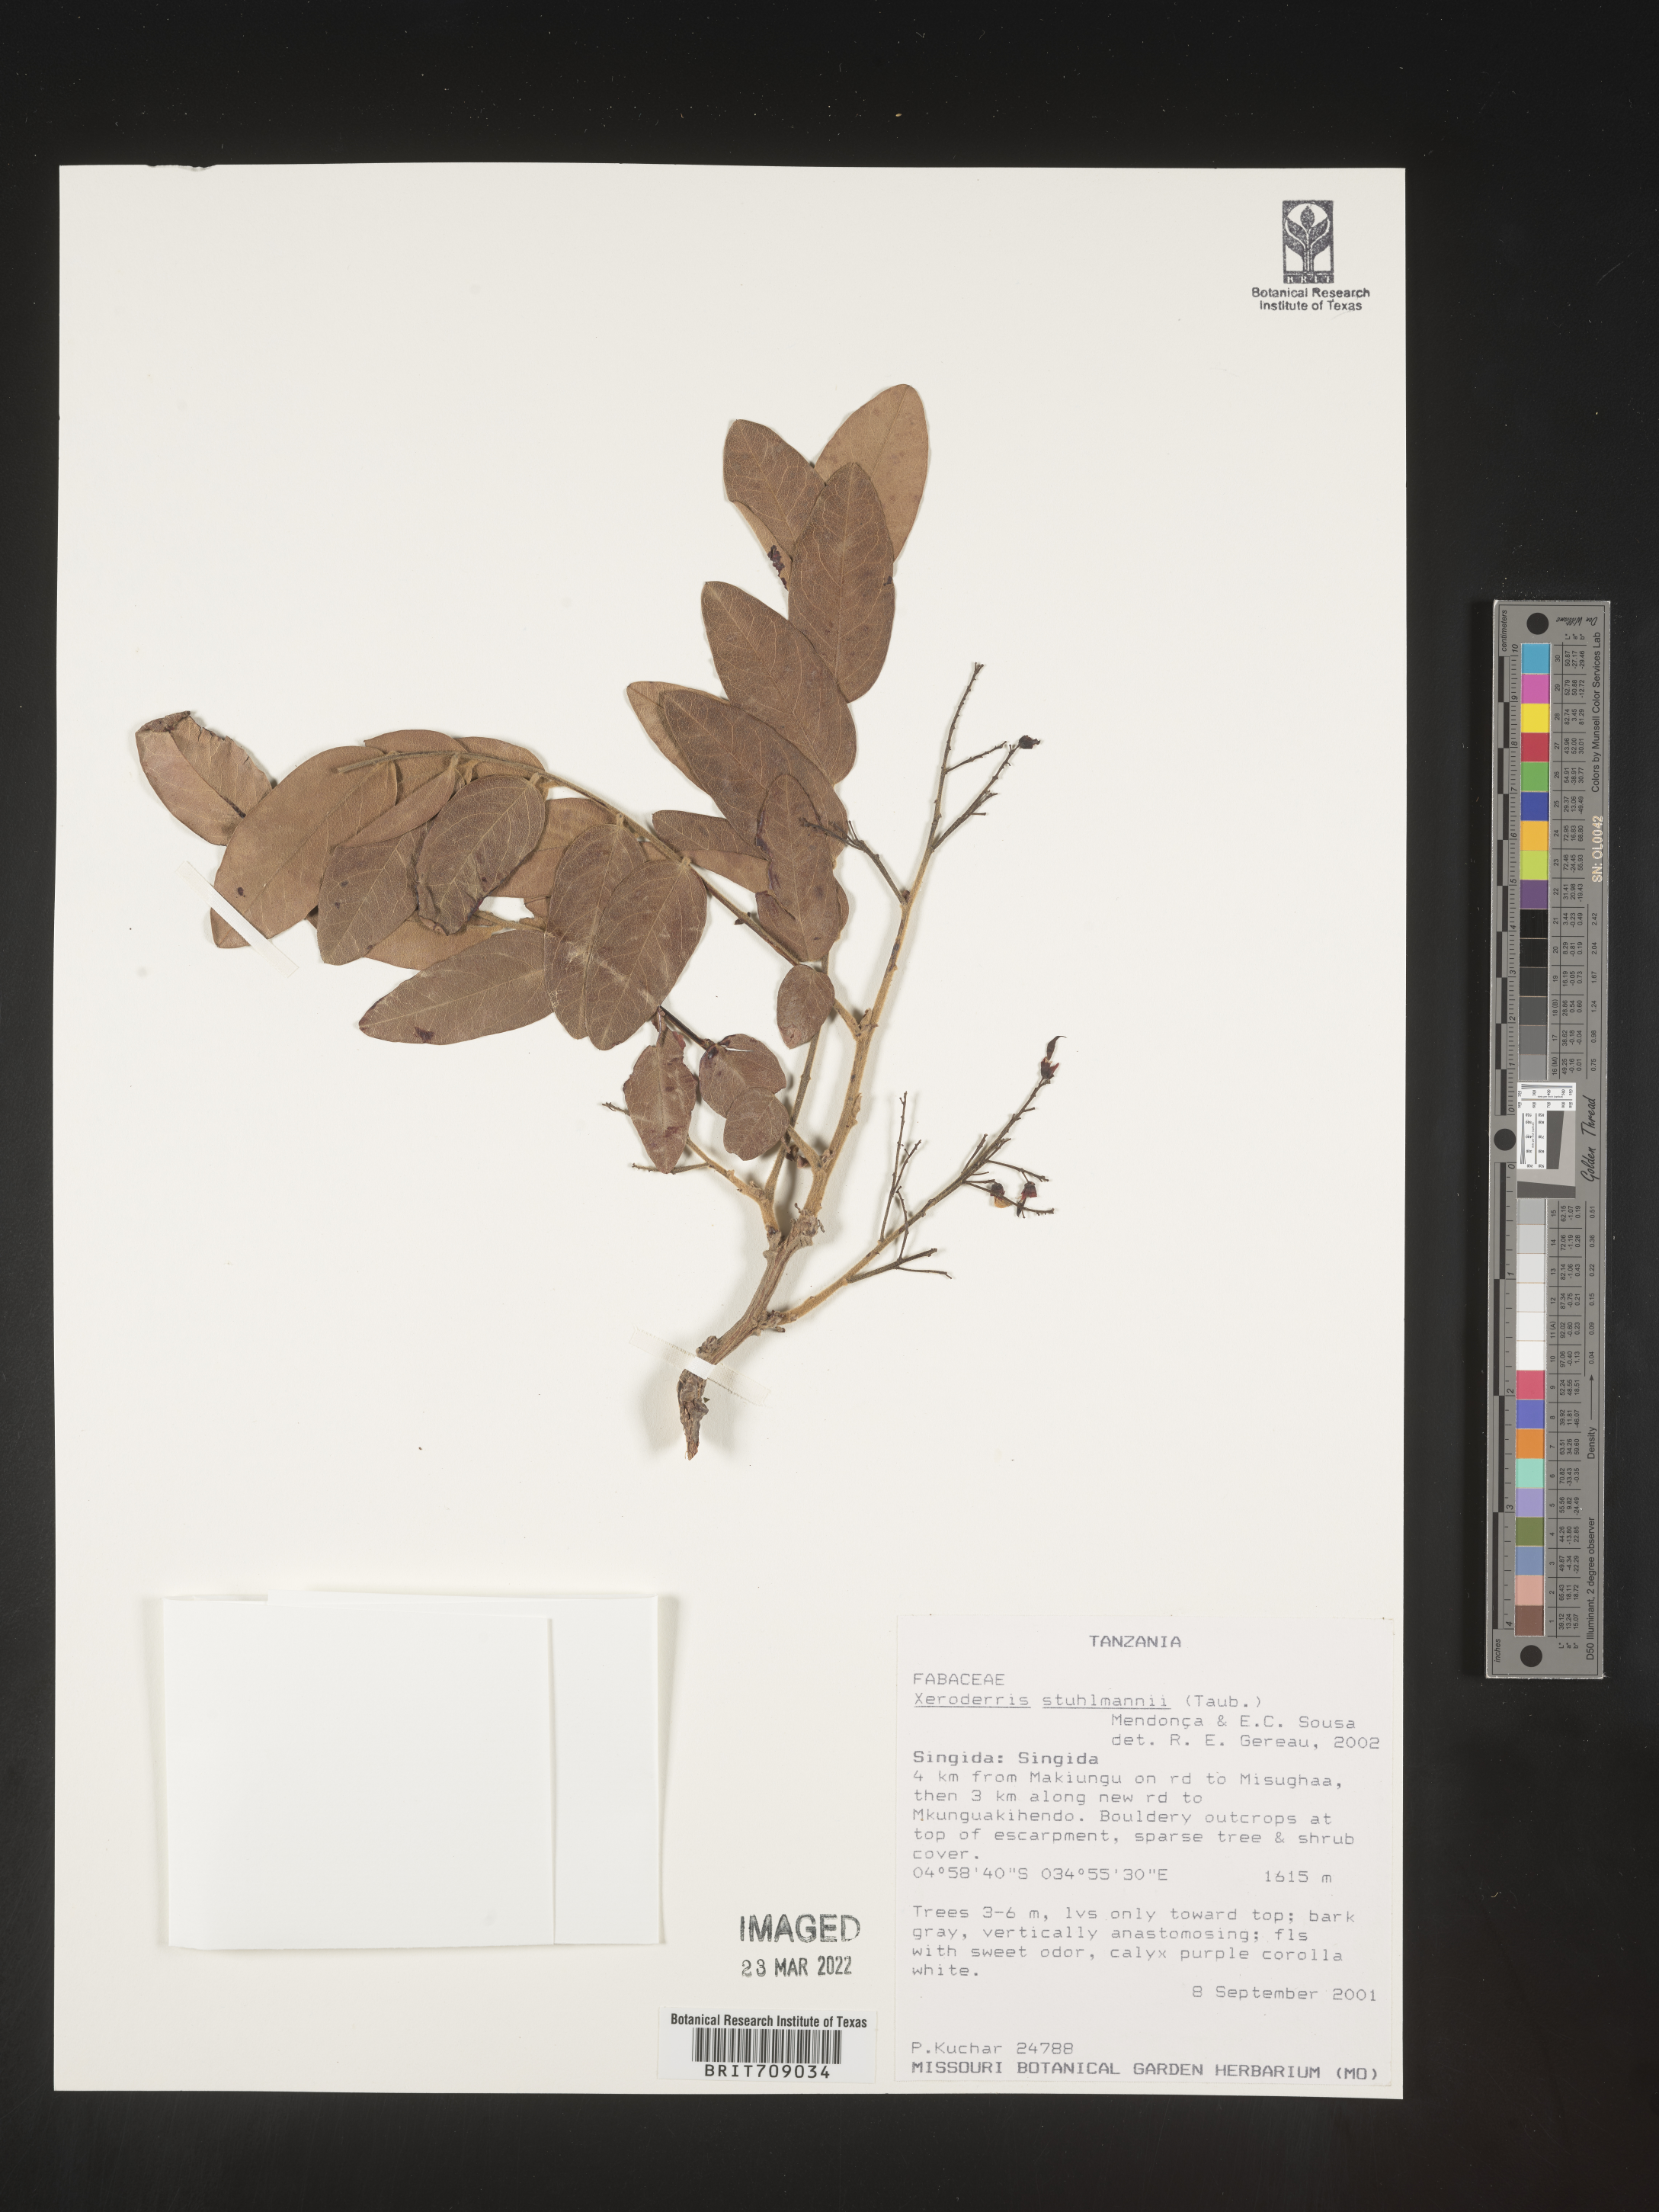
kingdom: Plantae
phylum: Tracheophyta
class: Magnoliopsida
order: Fabales
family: Fabaceae
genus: Aganope
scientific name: Aganope
